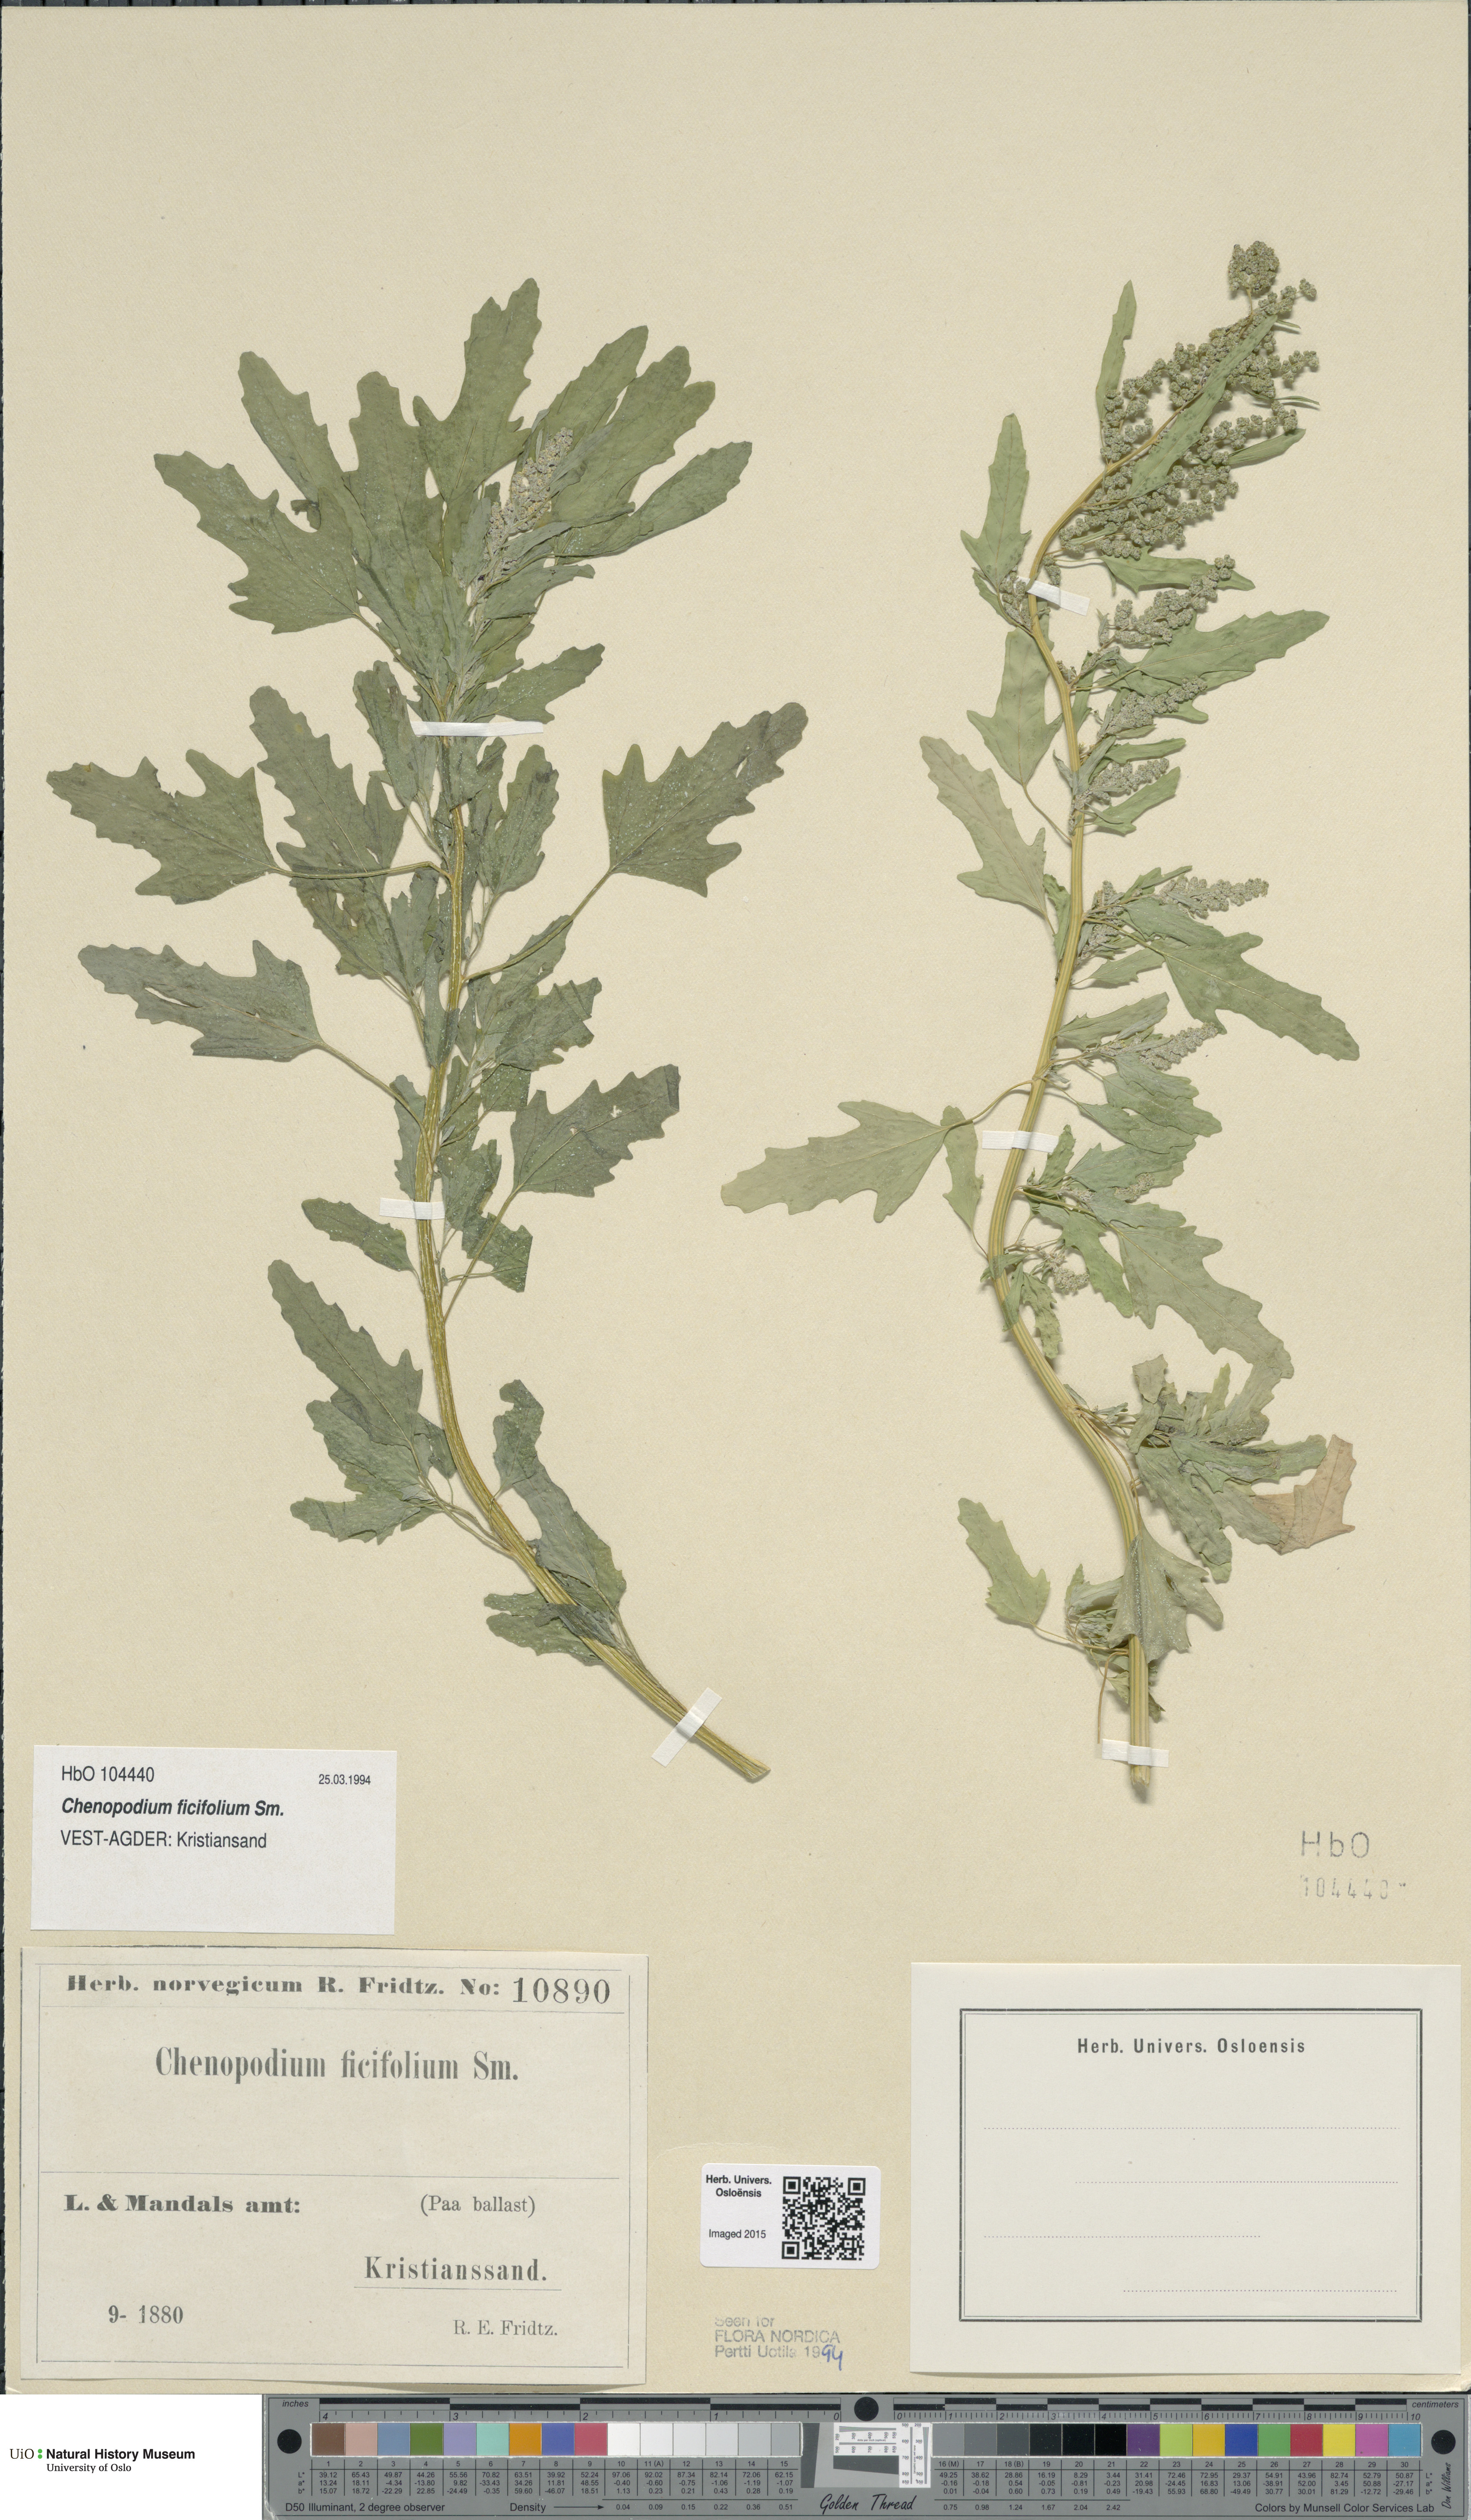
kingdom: Plantae
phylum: Tracheophyta
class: Magnoliopsida
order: Caryophyllales
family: Amaranthaceae
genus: Chenopodium
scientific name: Chenopodium ficifolium
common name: Fig-leaved goosefoot
